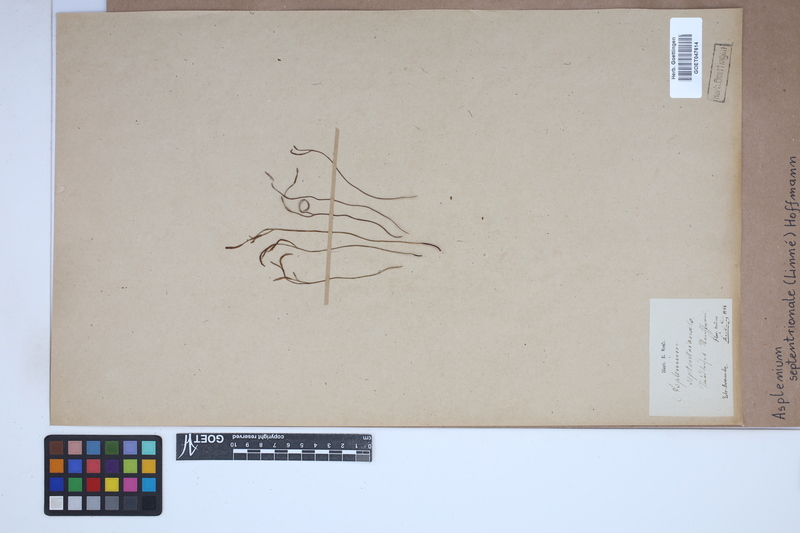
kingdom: Plantae
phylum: Tracheophyta
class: Polypodiopsida
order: Polypodiales
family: Aspleniaceae
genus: Asplenium
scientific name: Asplenium septentrionale
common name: Forked spleenwort
